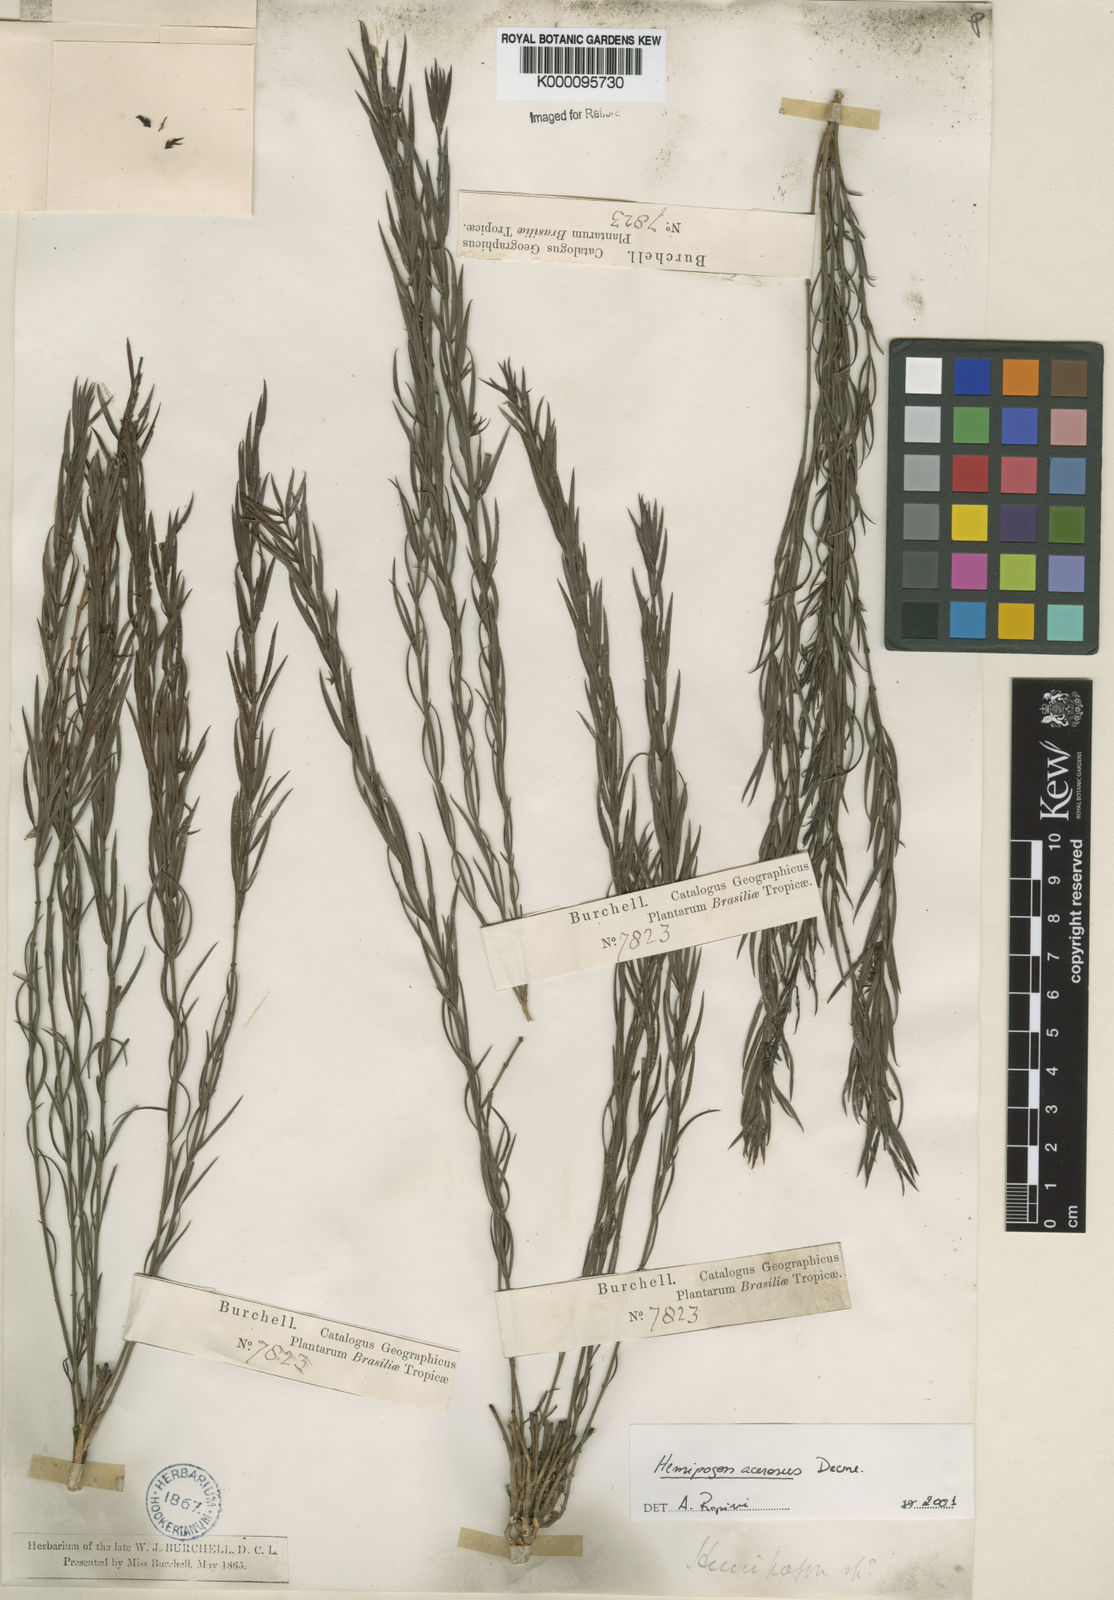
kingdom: Plantae
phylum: Tracheophyta
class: Magnoliopsida
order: Gentianales
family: Apocynaceae
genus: Hemipogon
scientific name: Hemipogon acerosus
